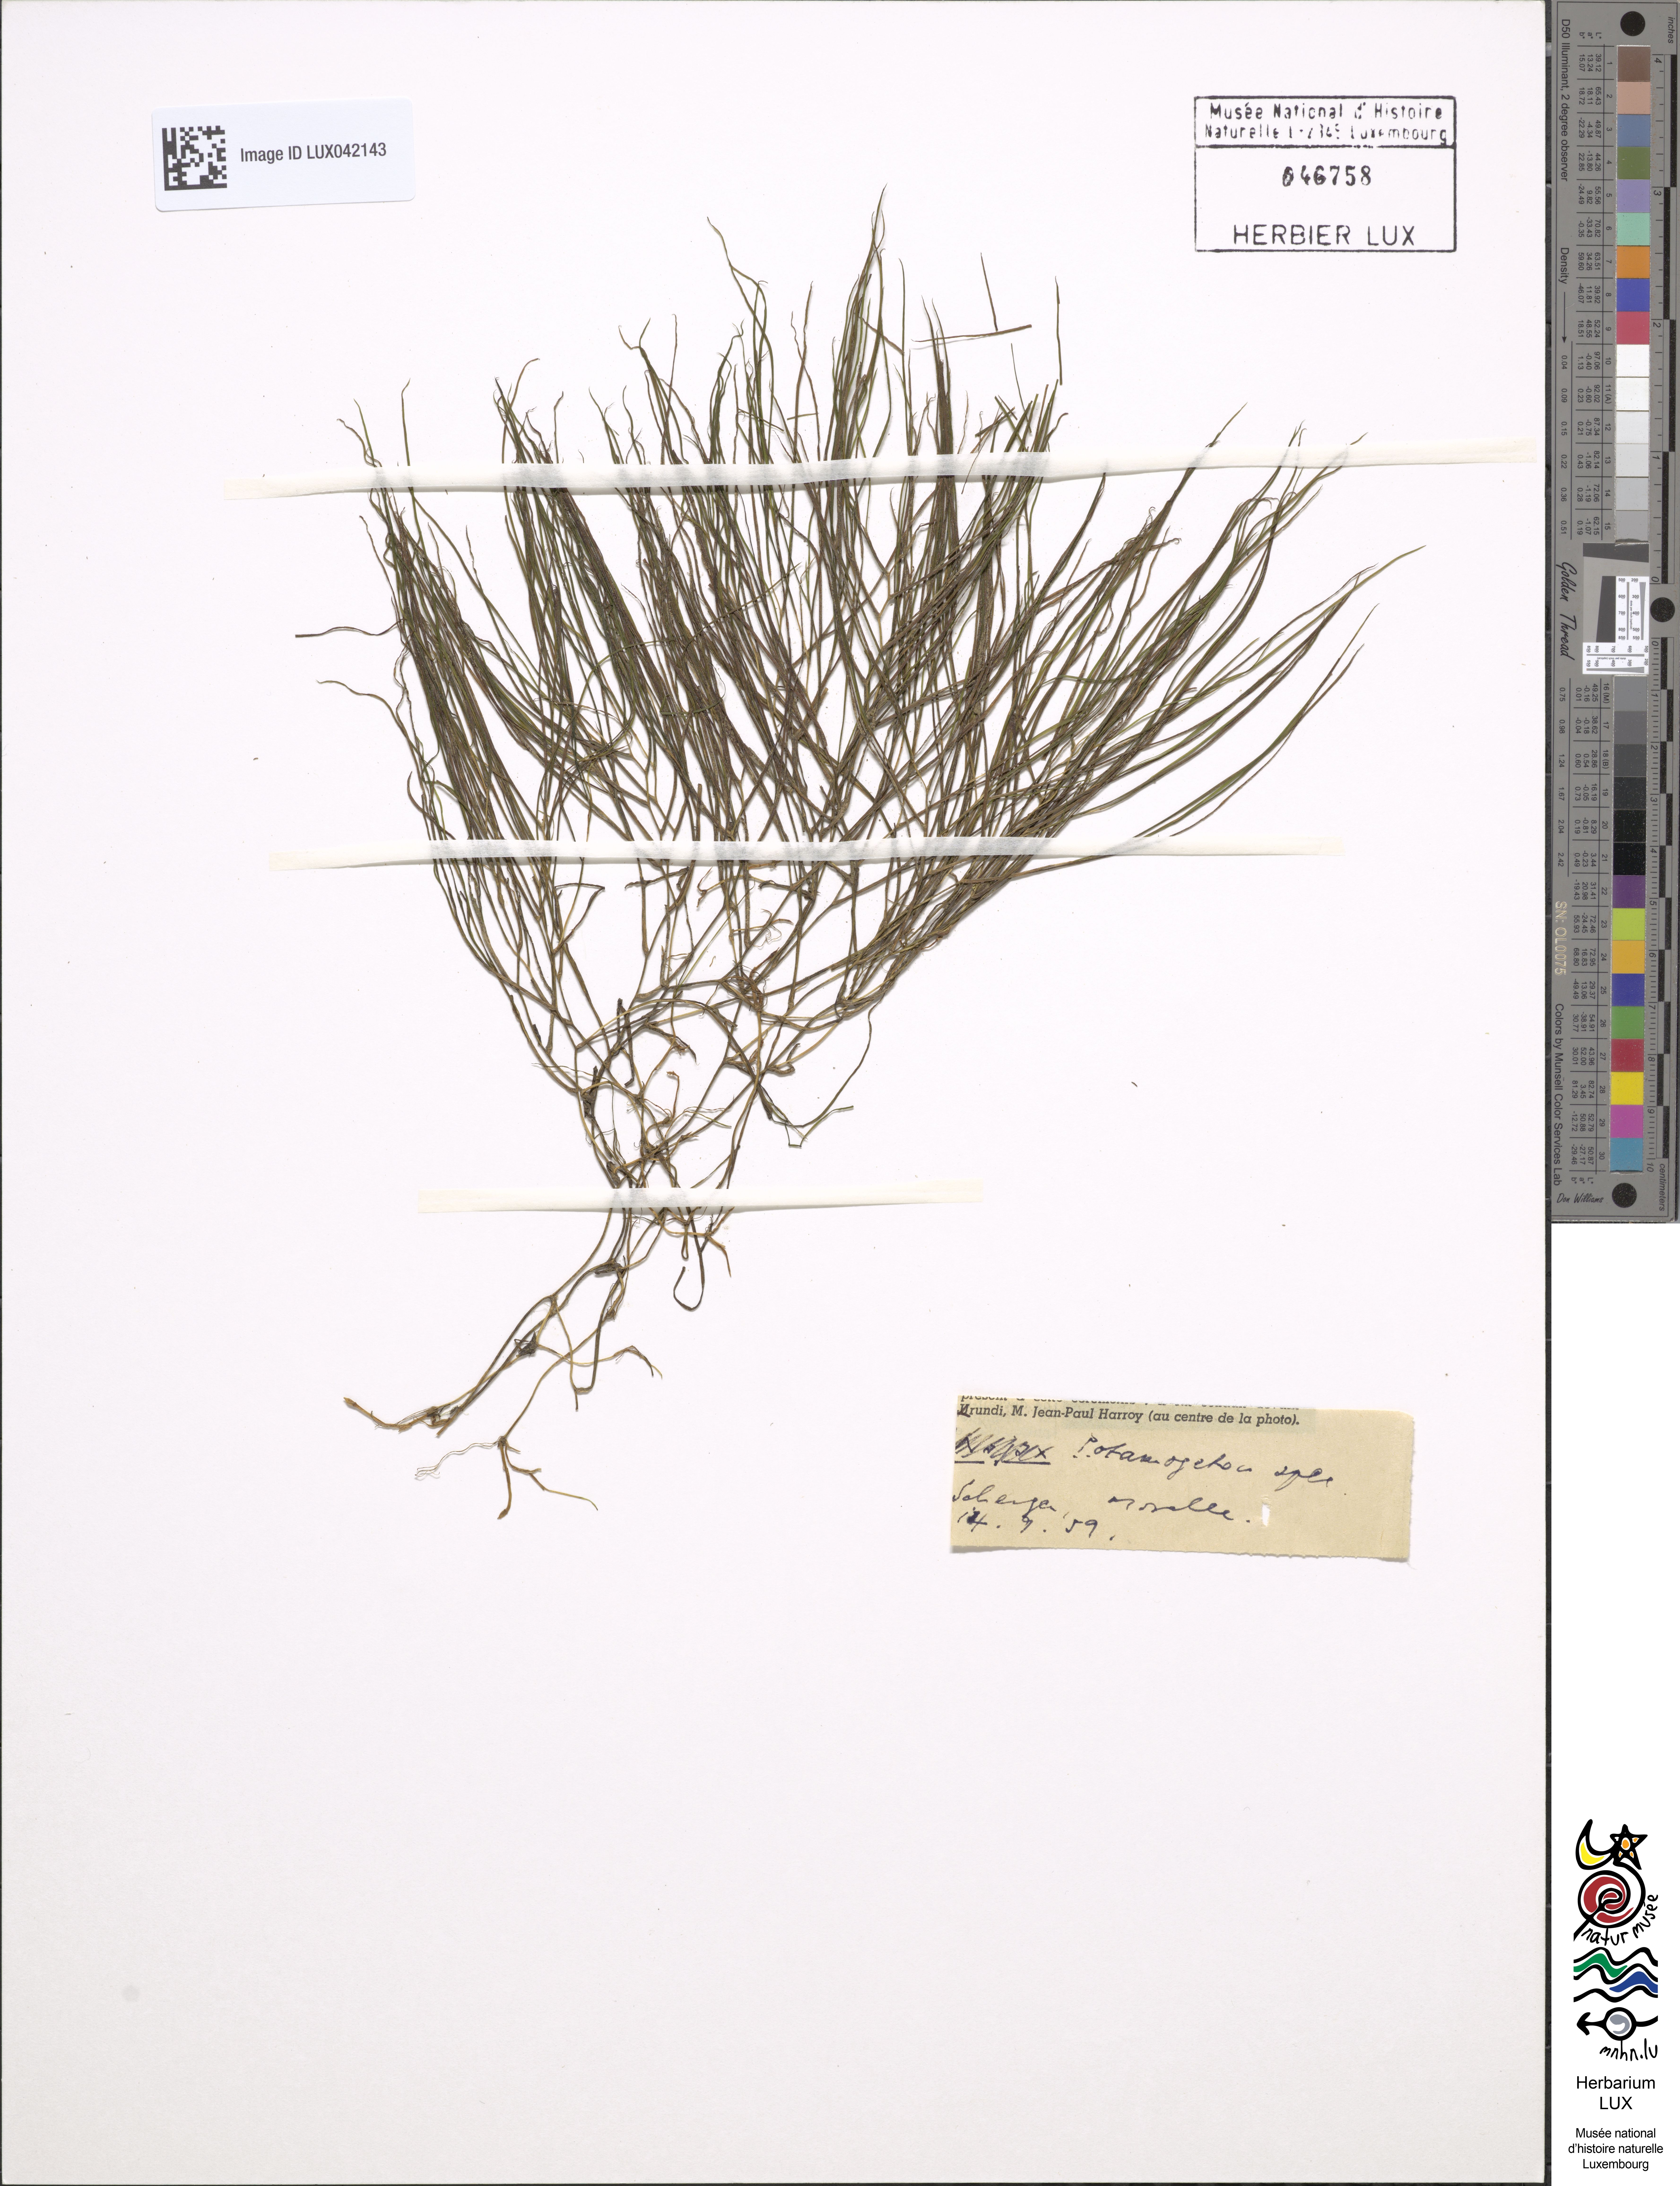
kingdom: Plantae
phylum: Tracheophyta
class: Liliopsida
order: Alismatales
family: Potamogetonaceae
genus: Potamogeton
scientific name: Potamogeton
